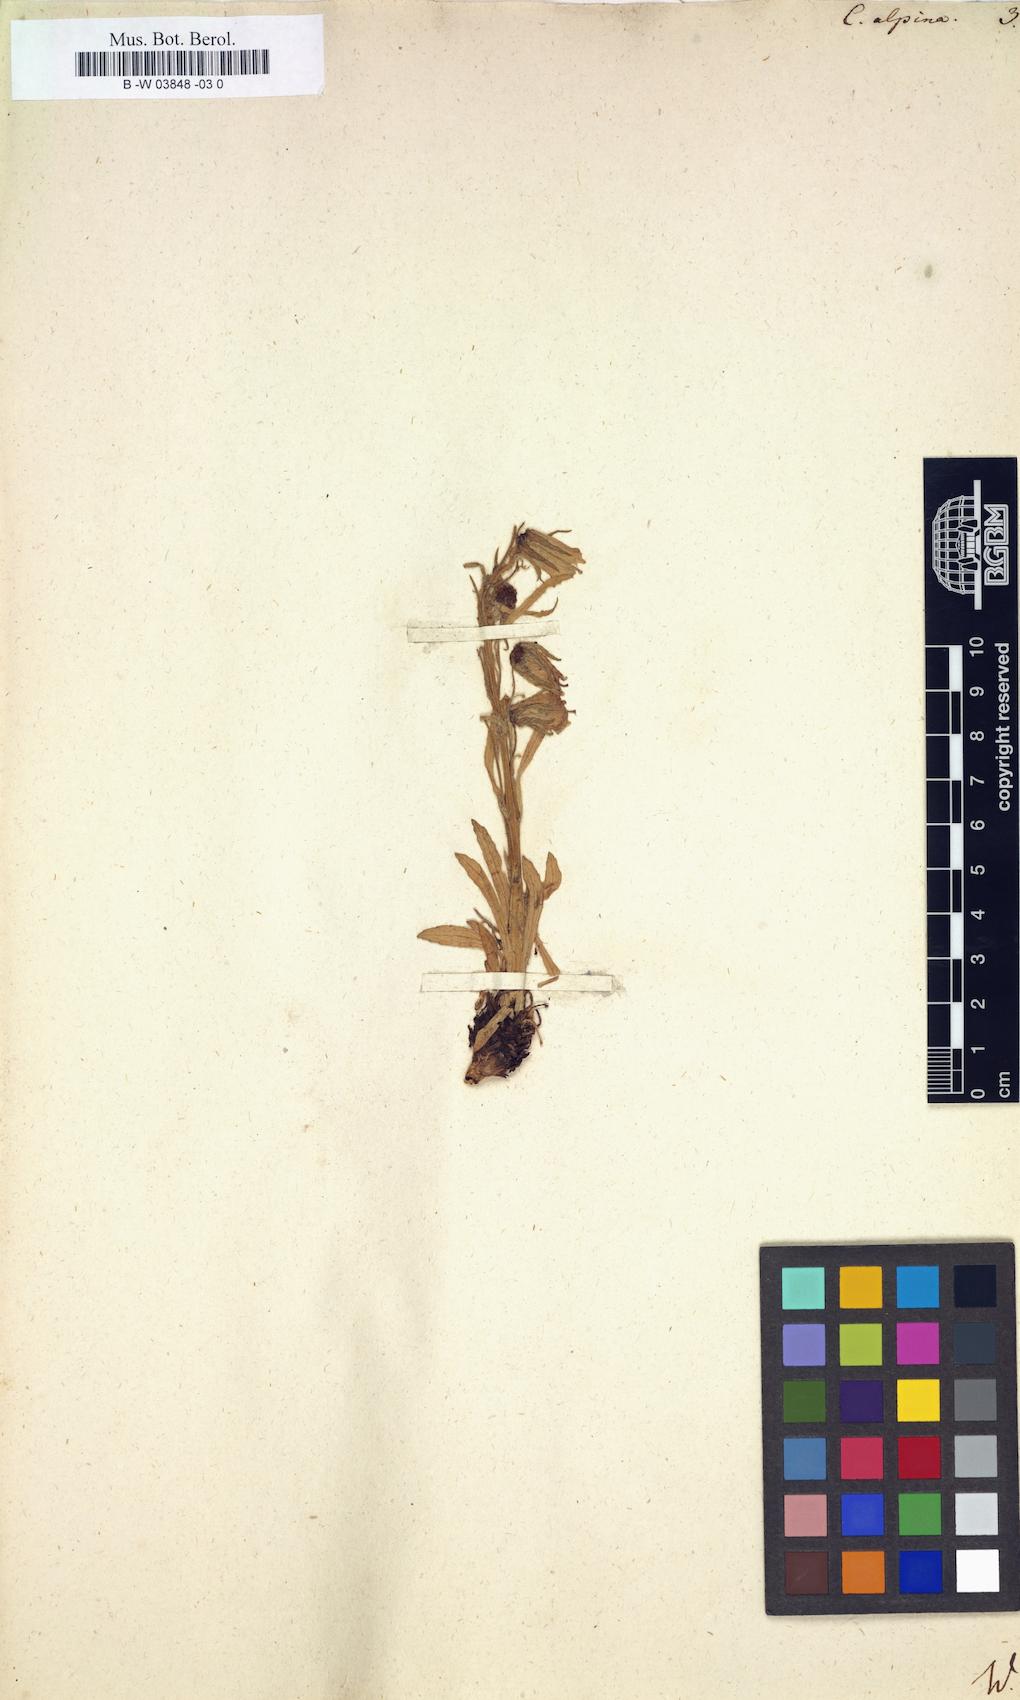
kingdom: Plantae
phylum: Tracheophyta
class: Magnoliopsida
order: Asterales
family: Campanulaceae
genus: Campanula
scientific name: Campanula alpina
